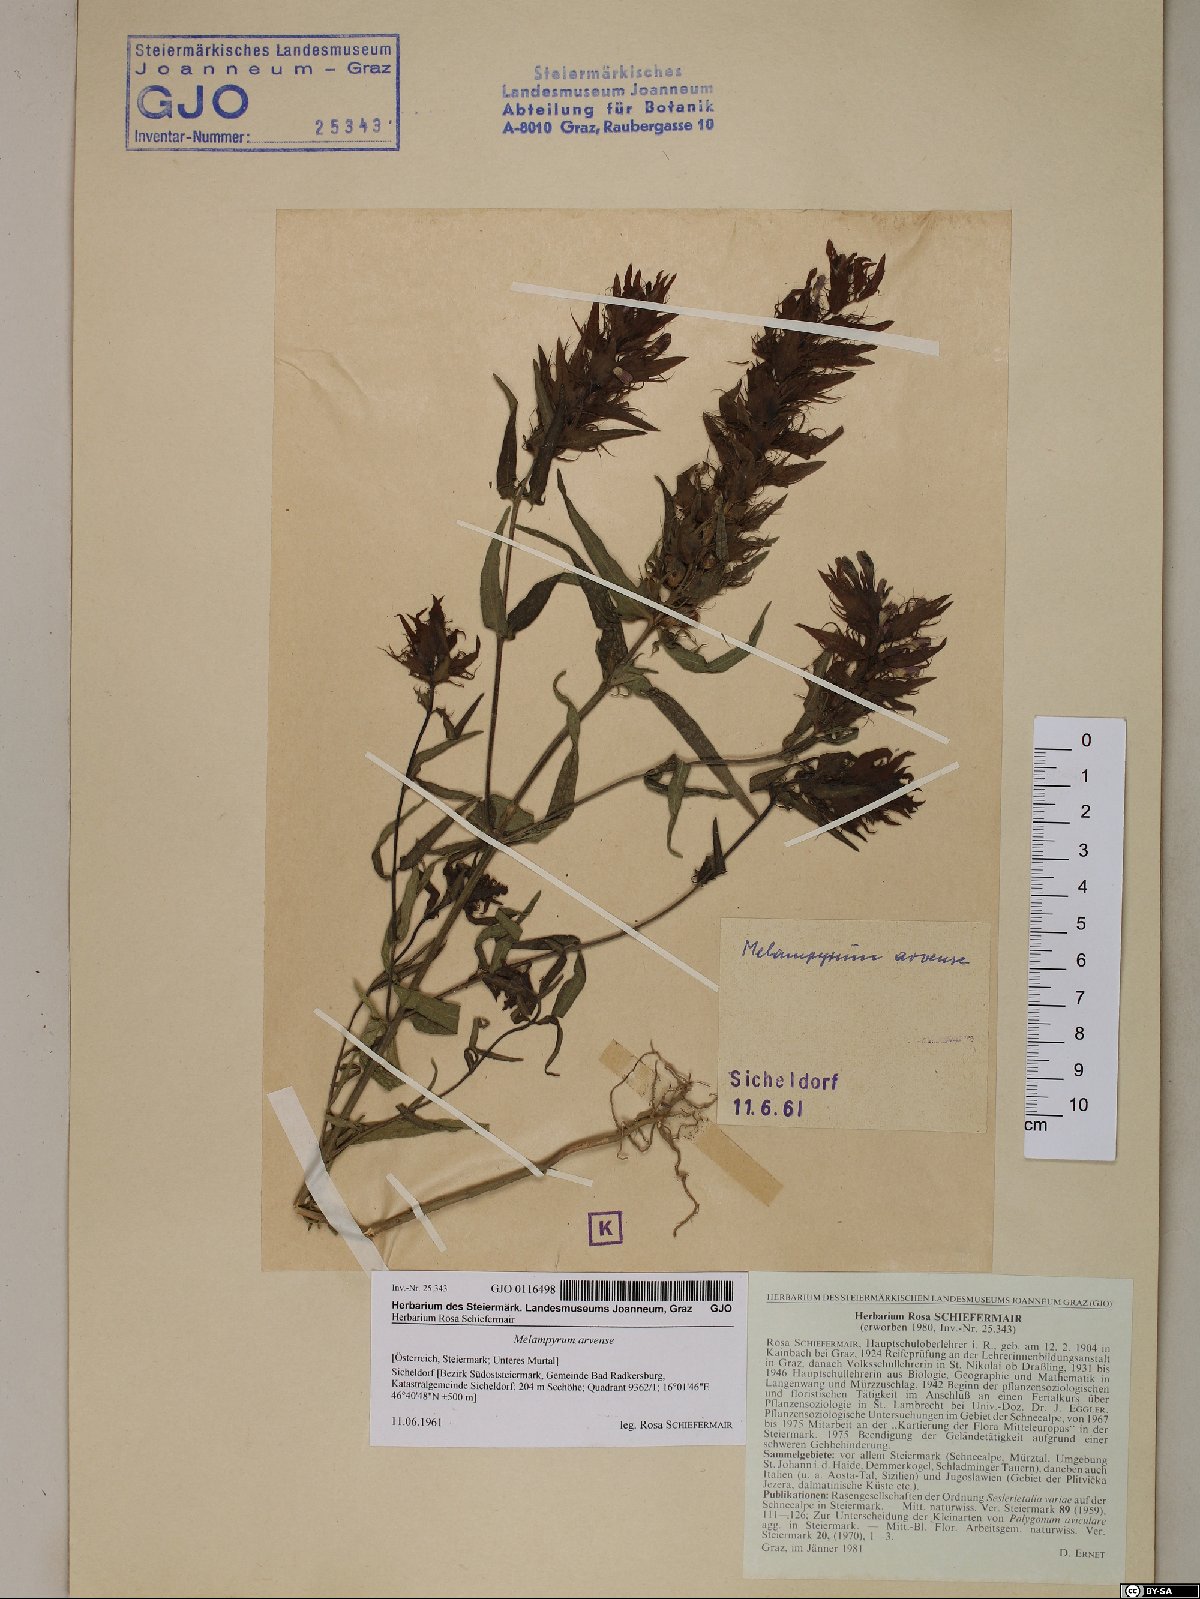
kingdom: Plantae
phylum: Tracheophyta
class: Magnoliopsida
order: Lamiales
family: Orobanchaceae
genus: Melampyrum
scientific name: Melampyrum arvense
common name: Field cow-wheat
